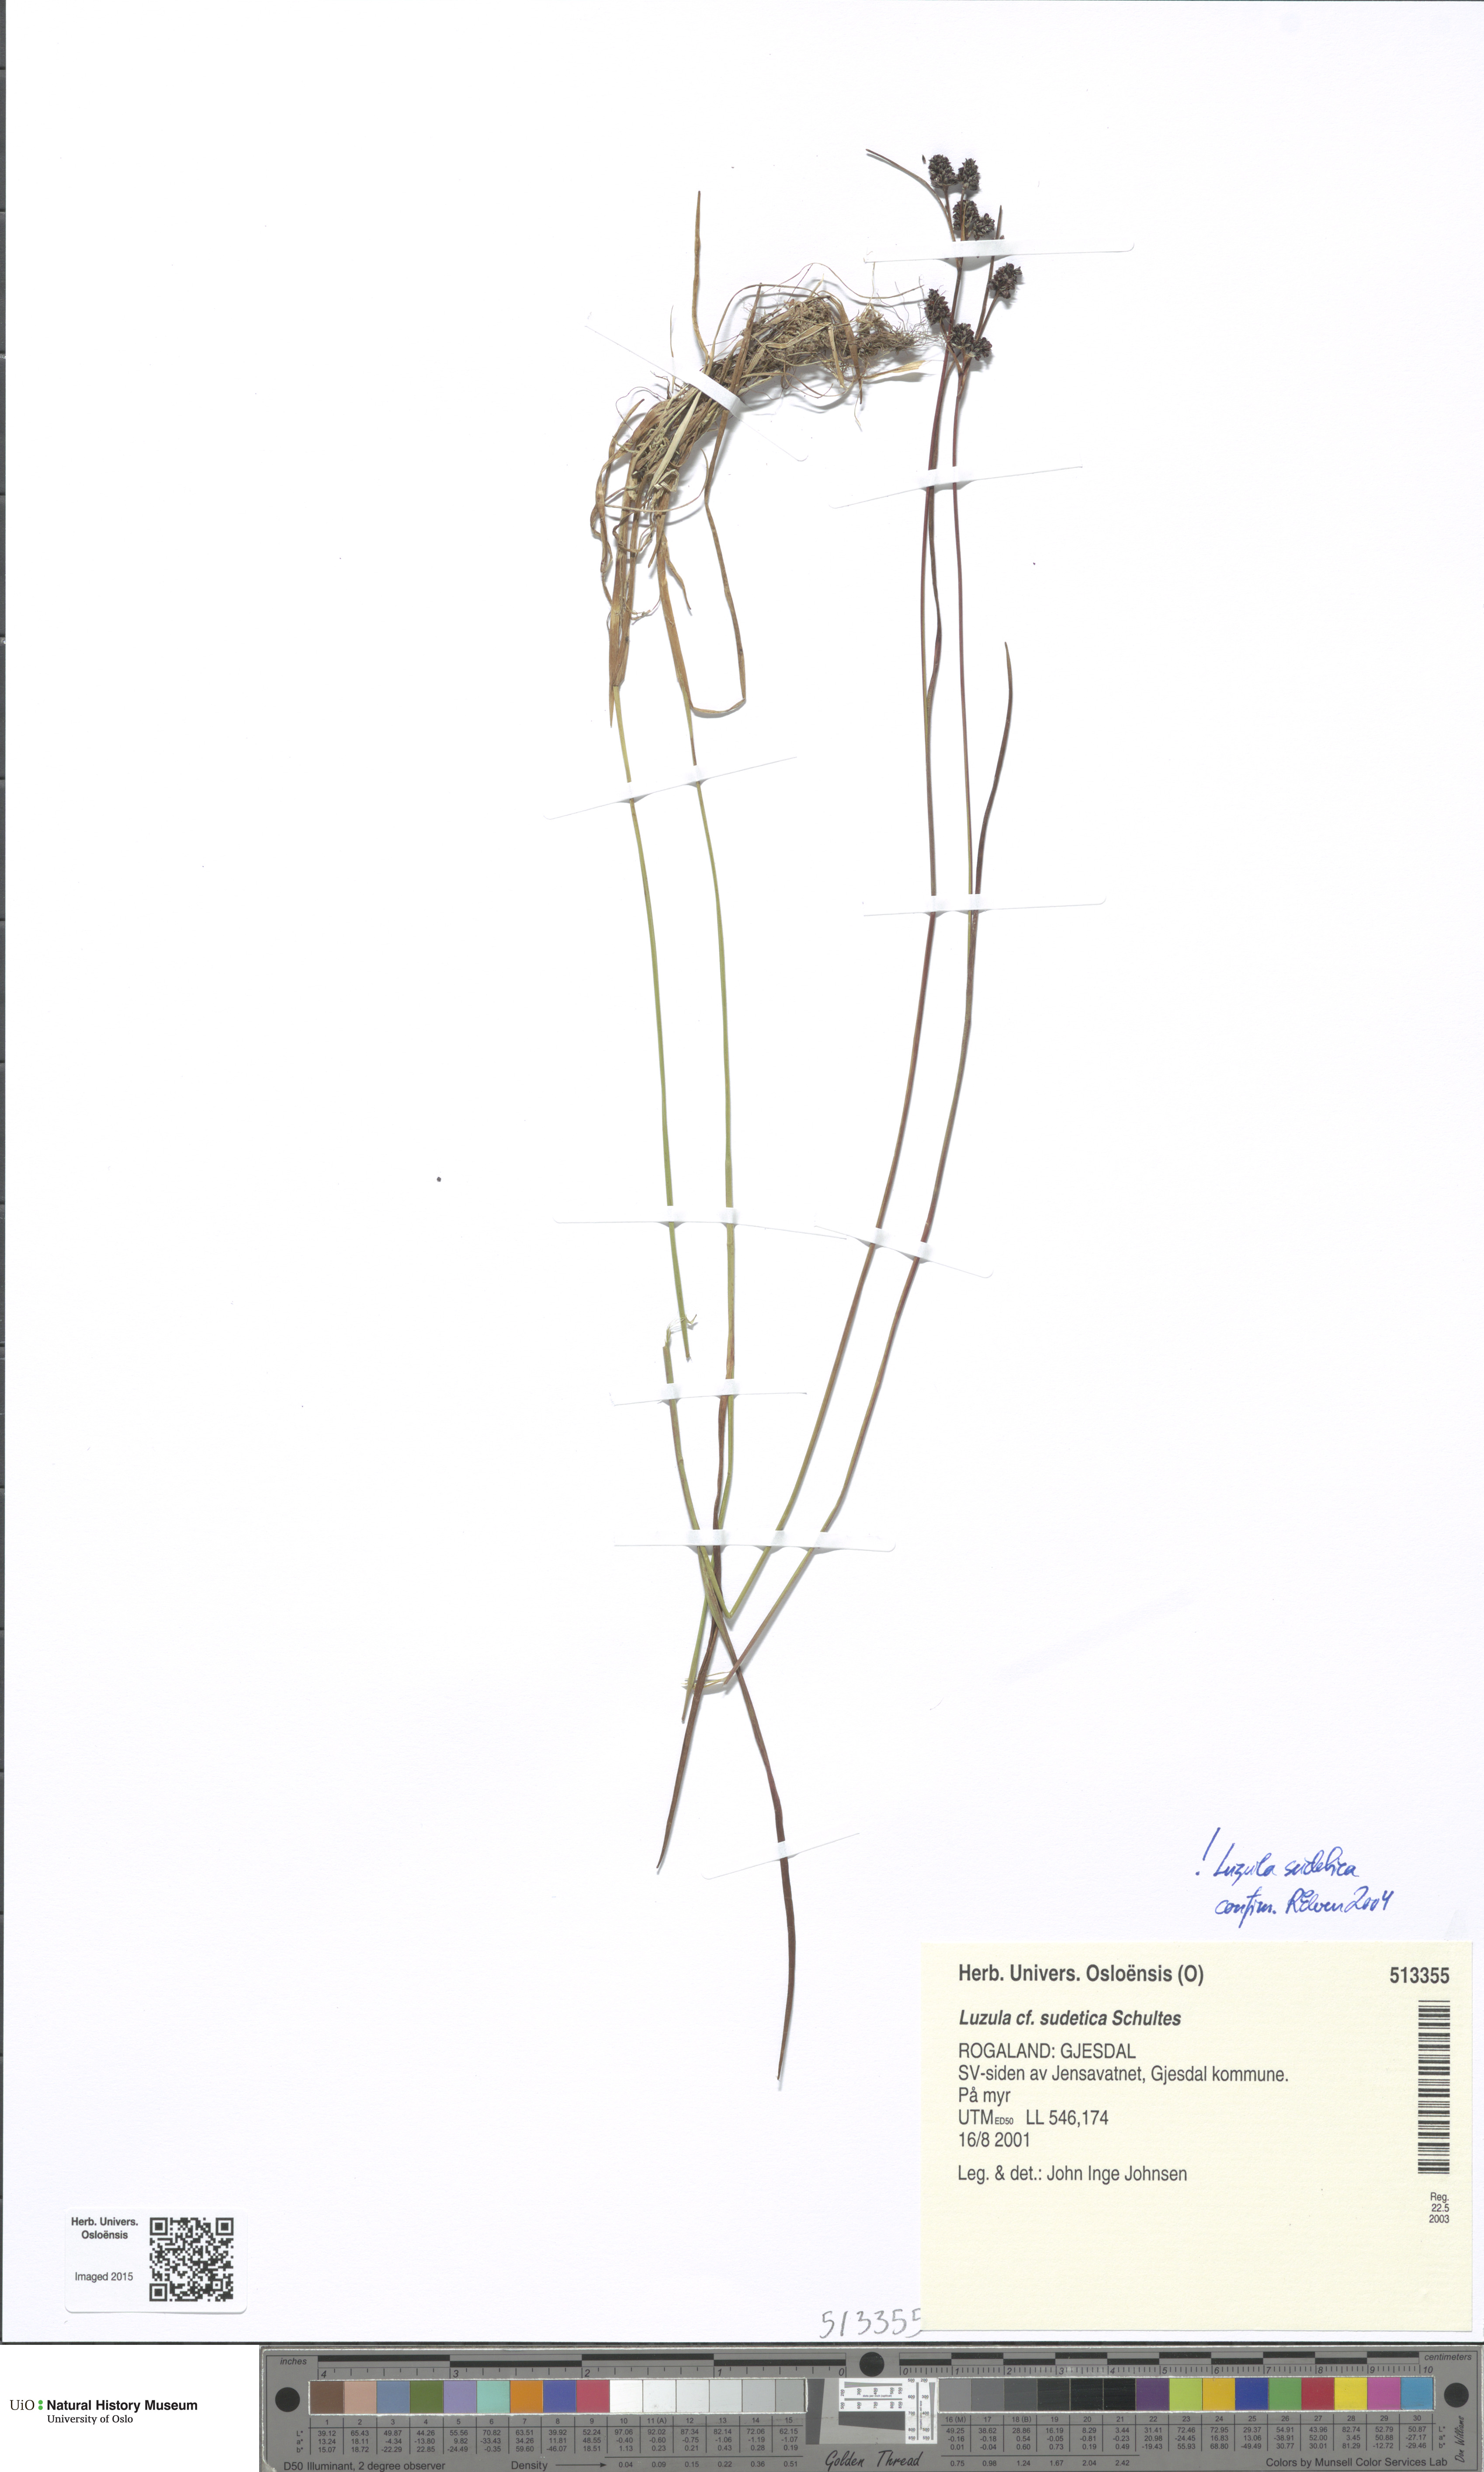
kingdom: Plantae
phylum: Tracheophyta
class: Liliopsida
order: Poales
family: Juncaceae
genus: Luzula
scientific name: Luzula sudetica
